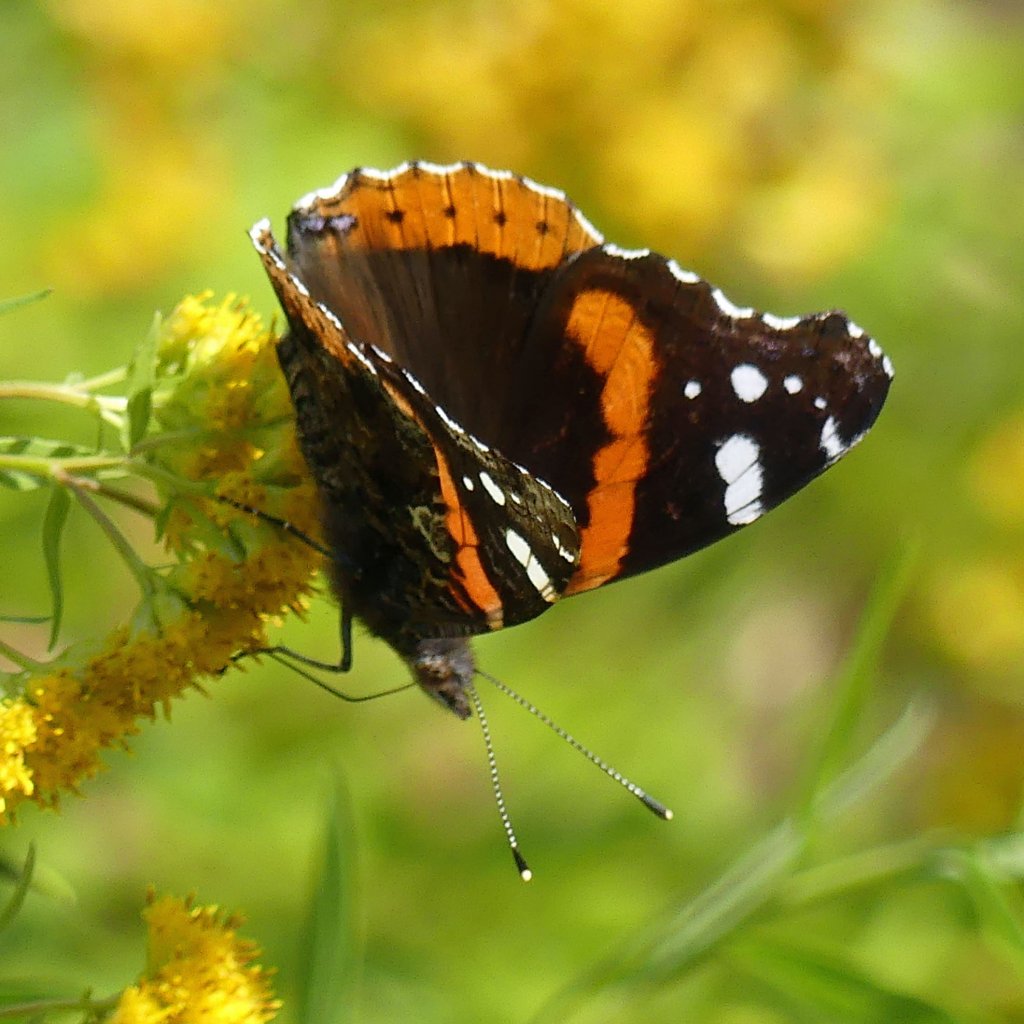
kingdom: Animalia
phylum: Arthropoda
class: Insecta
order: Lepidoptera
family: Nymphalidae
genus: Vanessa
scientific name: Vanessa atalanta
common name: Red Admiral
